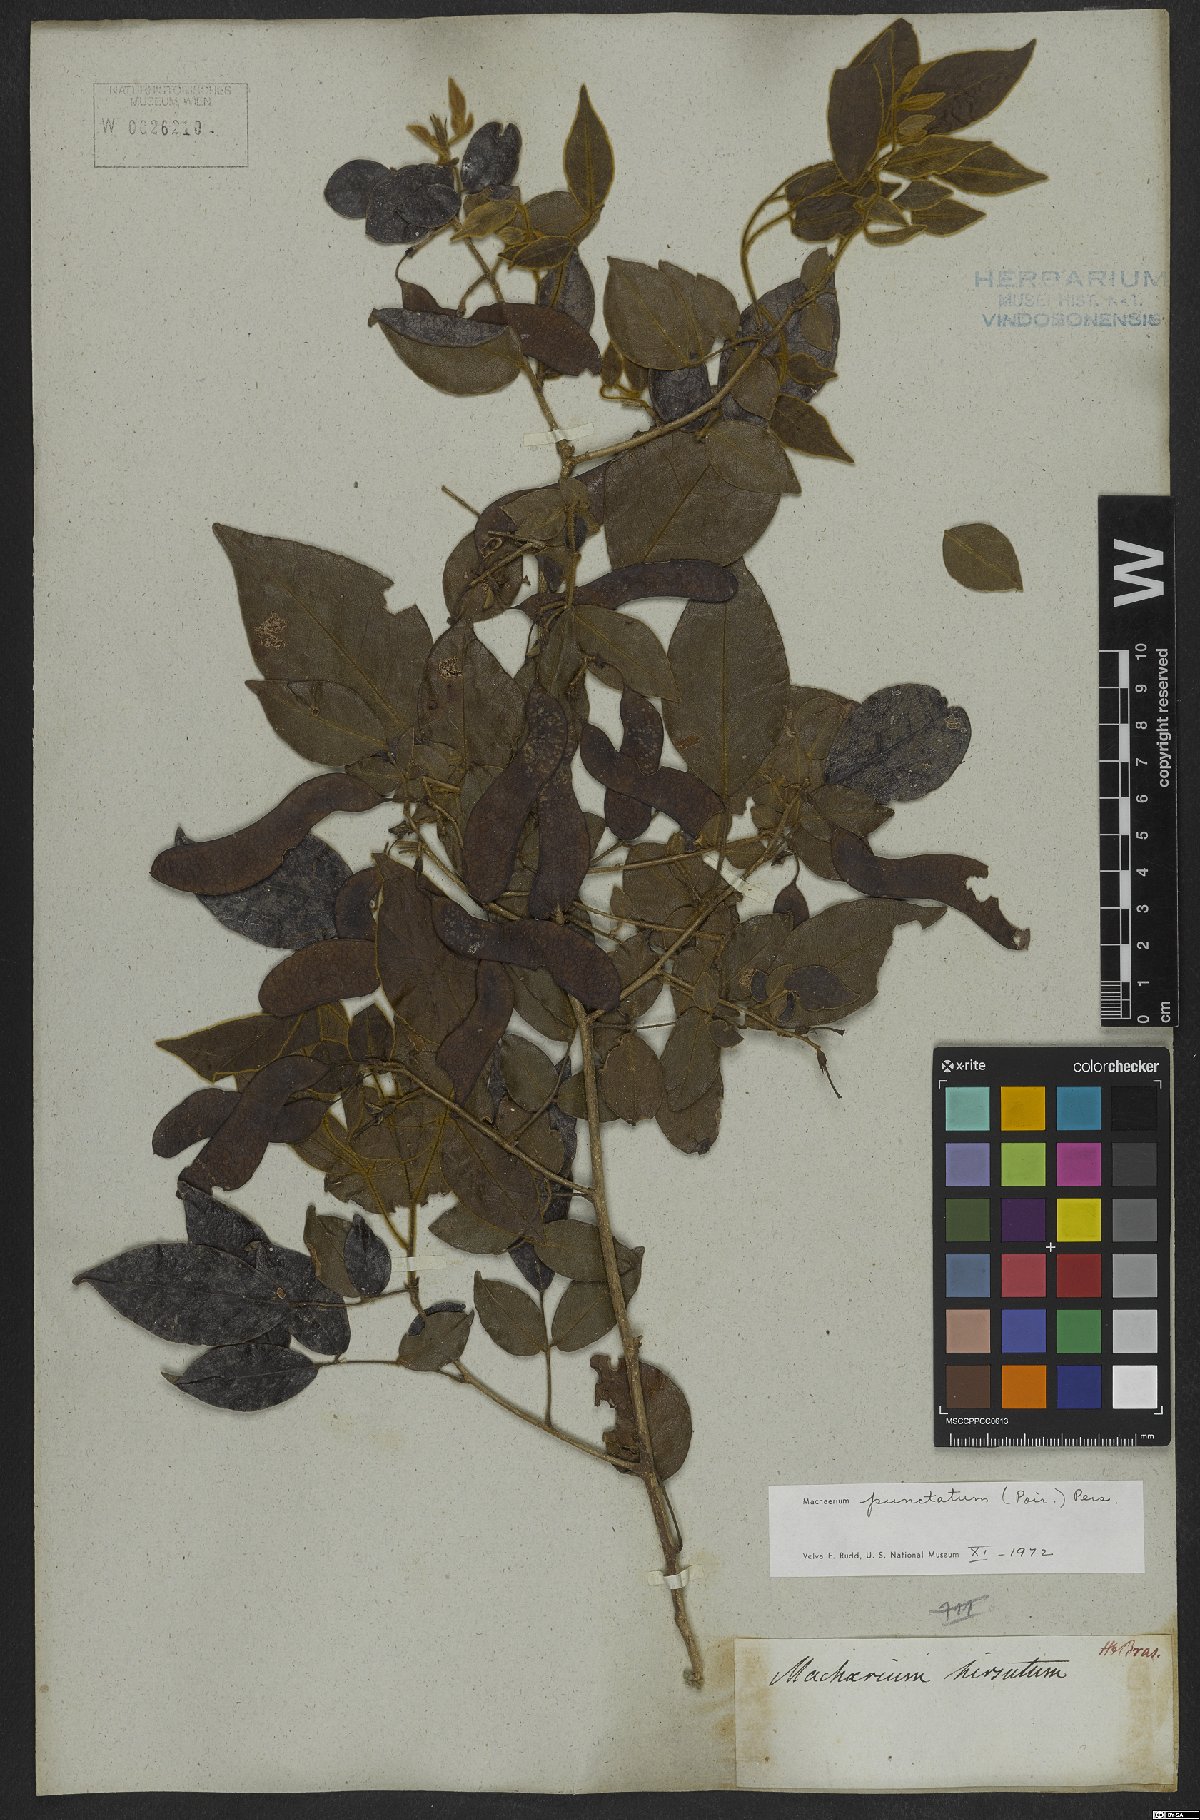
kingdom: Plantae
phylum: Tracheophyta
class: Magnoliopsida
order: Fabales
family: Fabaceae
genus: Machaerium
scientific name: Machaerium punctatum
